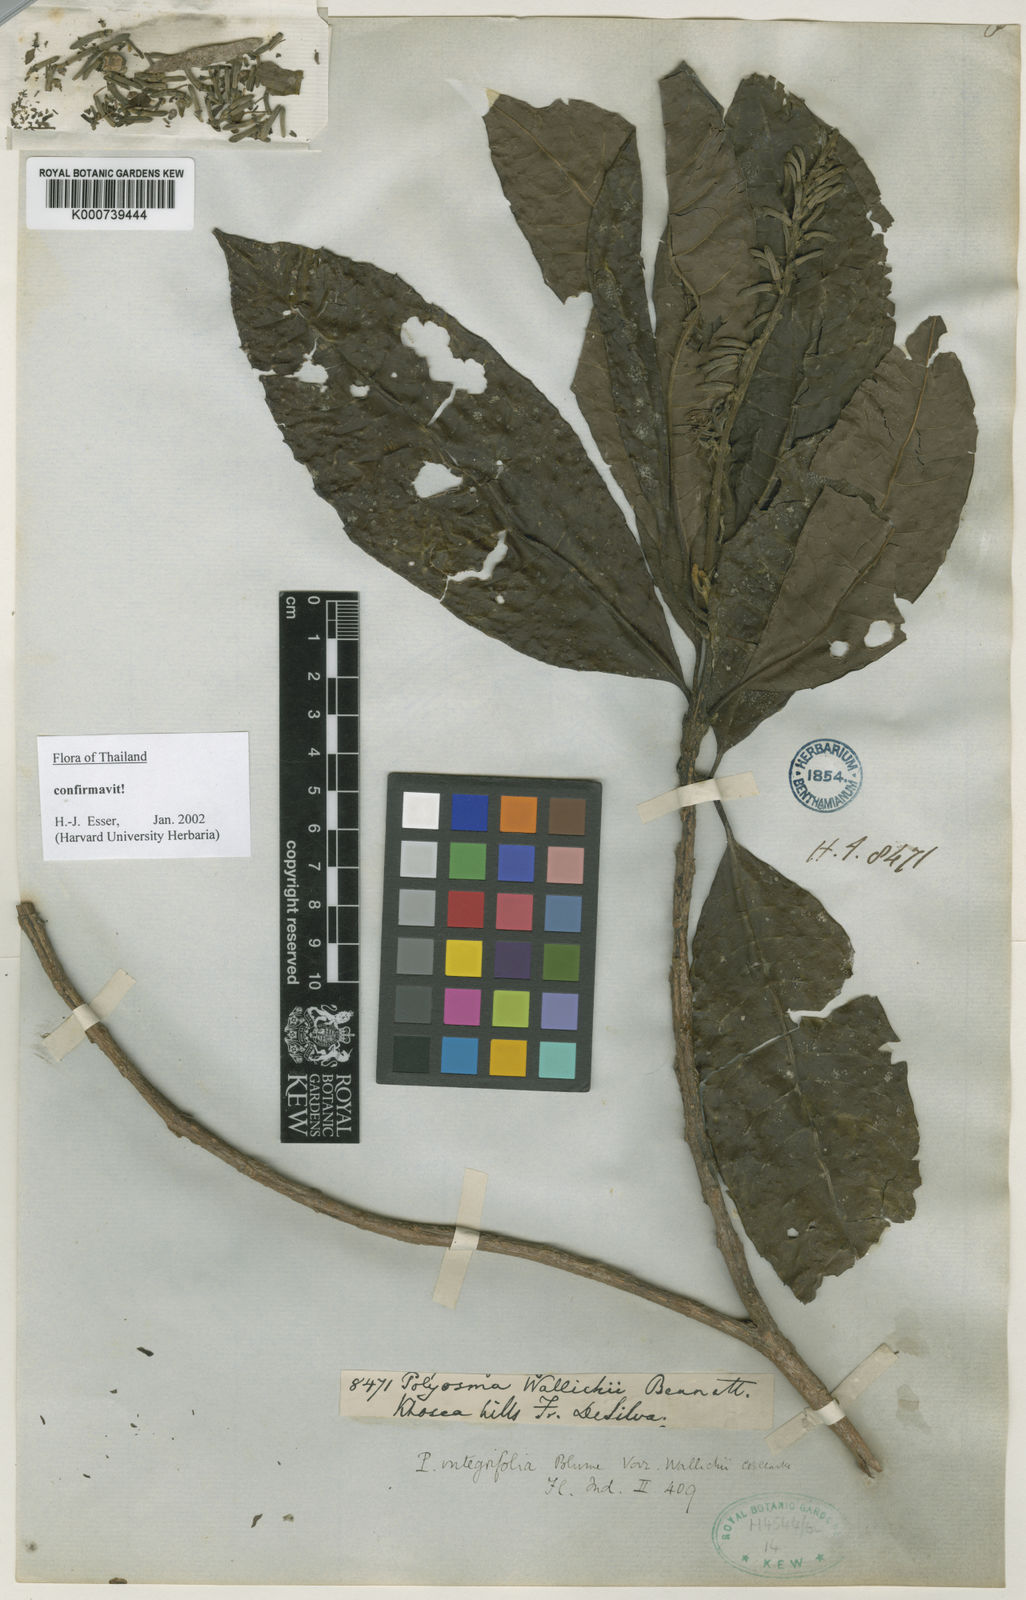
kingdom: Plantae
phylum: Tracheophyta
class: Magnoliopsida
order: Escalloniales
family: Escalloniaceae
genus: Polyosma
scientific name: Polyosma integrifolia
